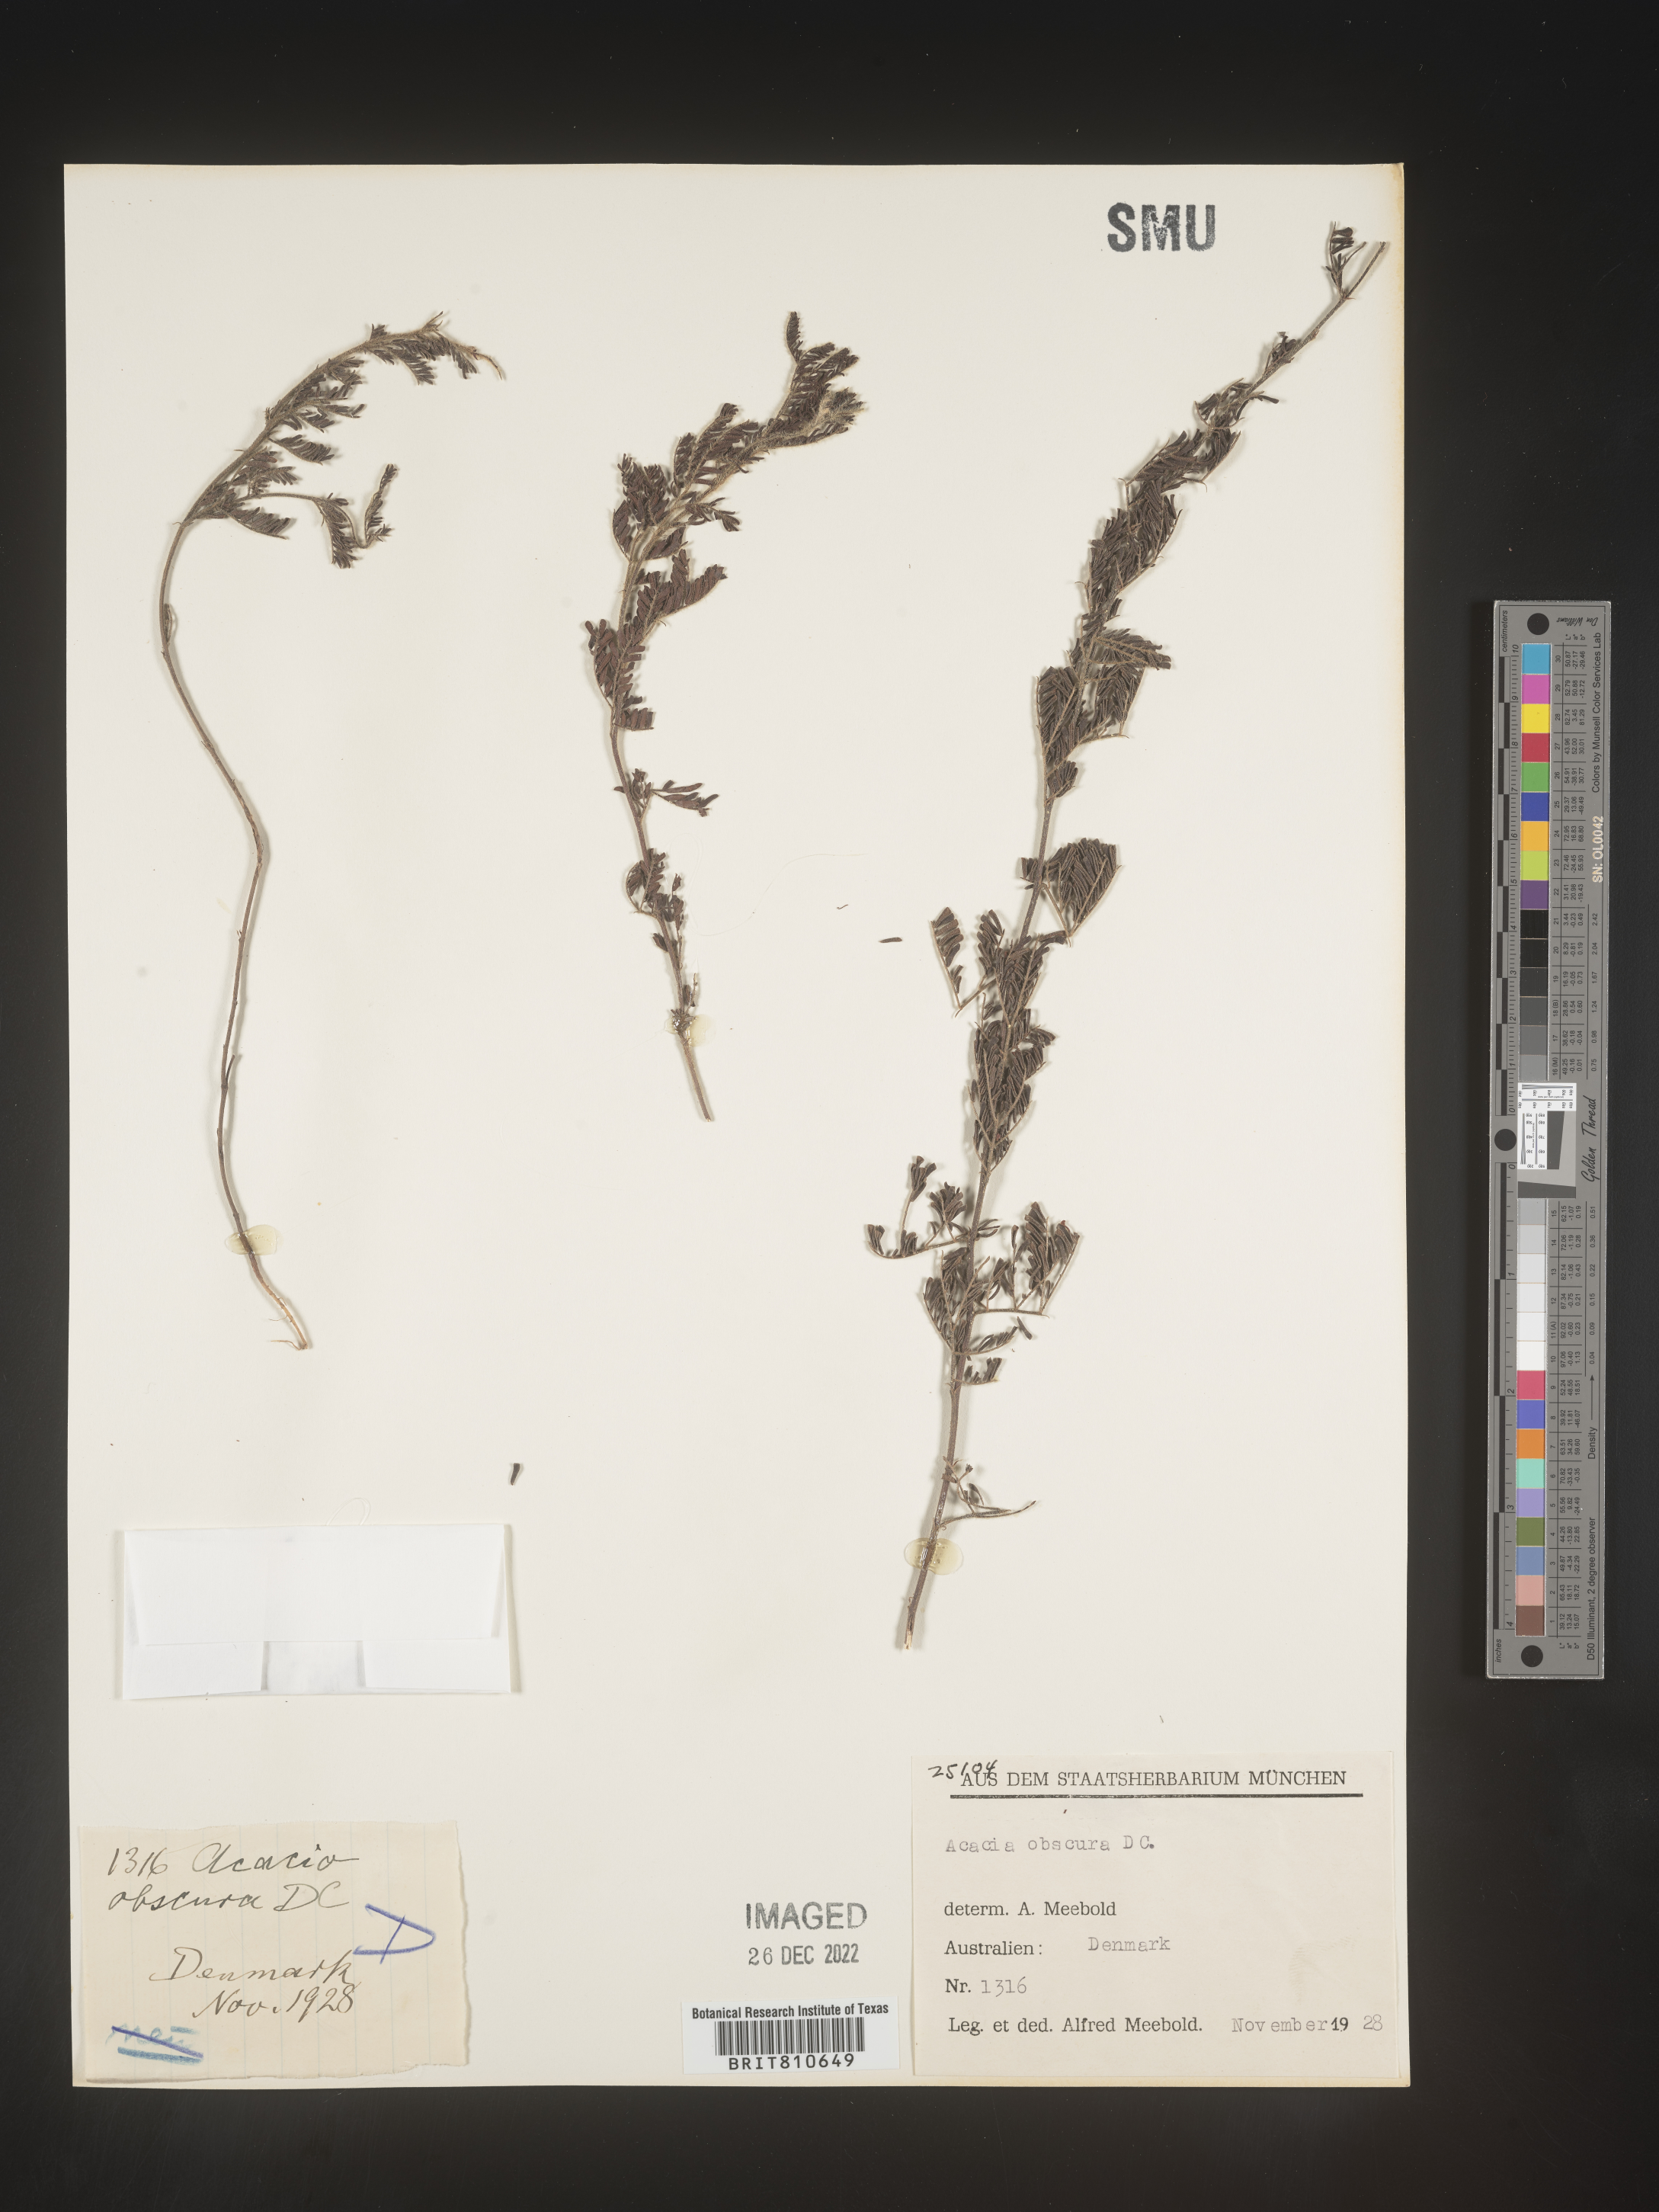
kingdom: Plantae
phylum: Tracheophyta
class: Magnoliopsida
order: Fabales
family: Fabaceae
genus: Acacia
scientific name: Acacia
